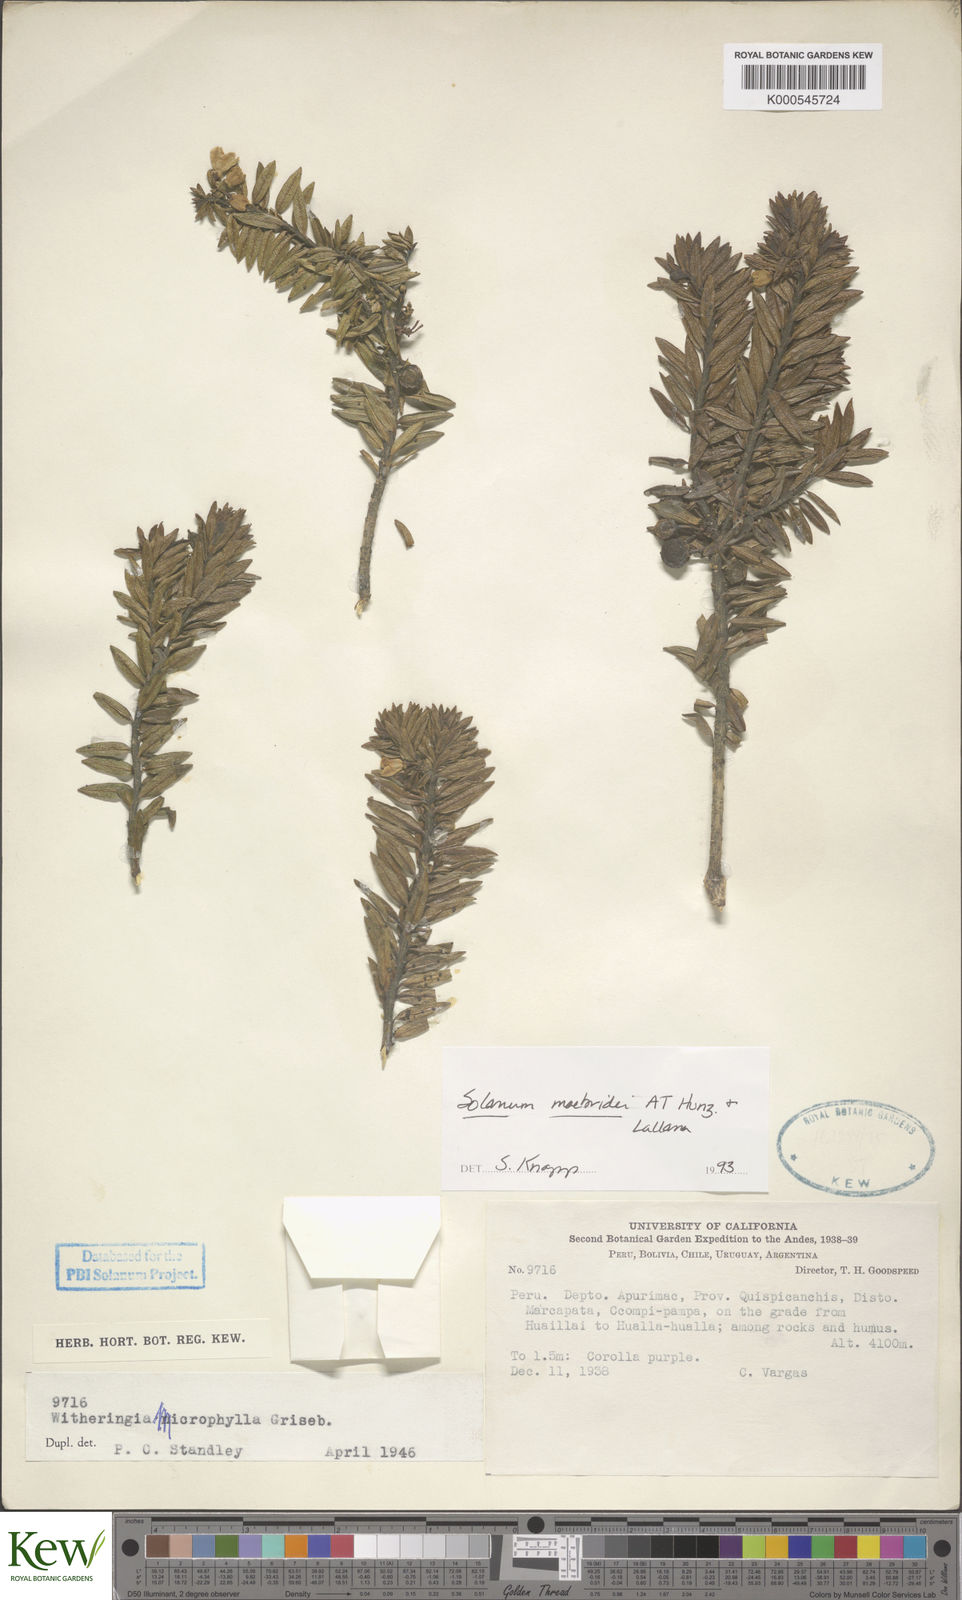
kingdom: Plantae
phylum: Tracheophyta
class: Magnoliopsida
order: Solanales
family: Solanaceae
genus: Solanum
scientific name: Solanum macbridei
